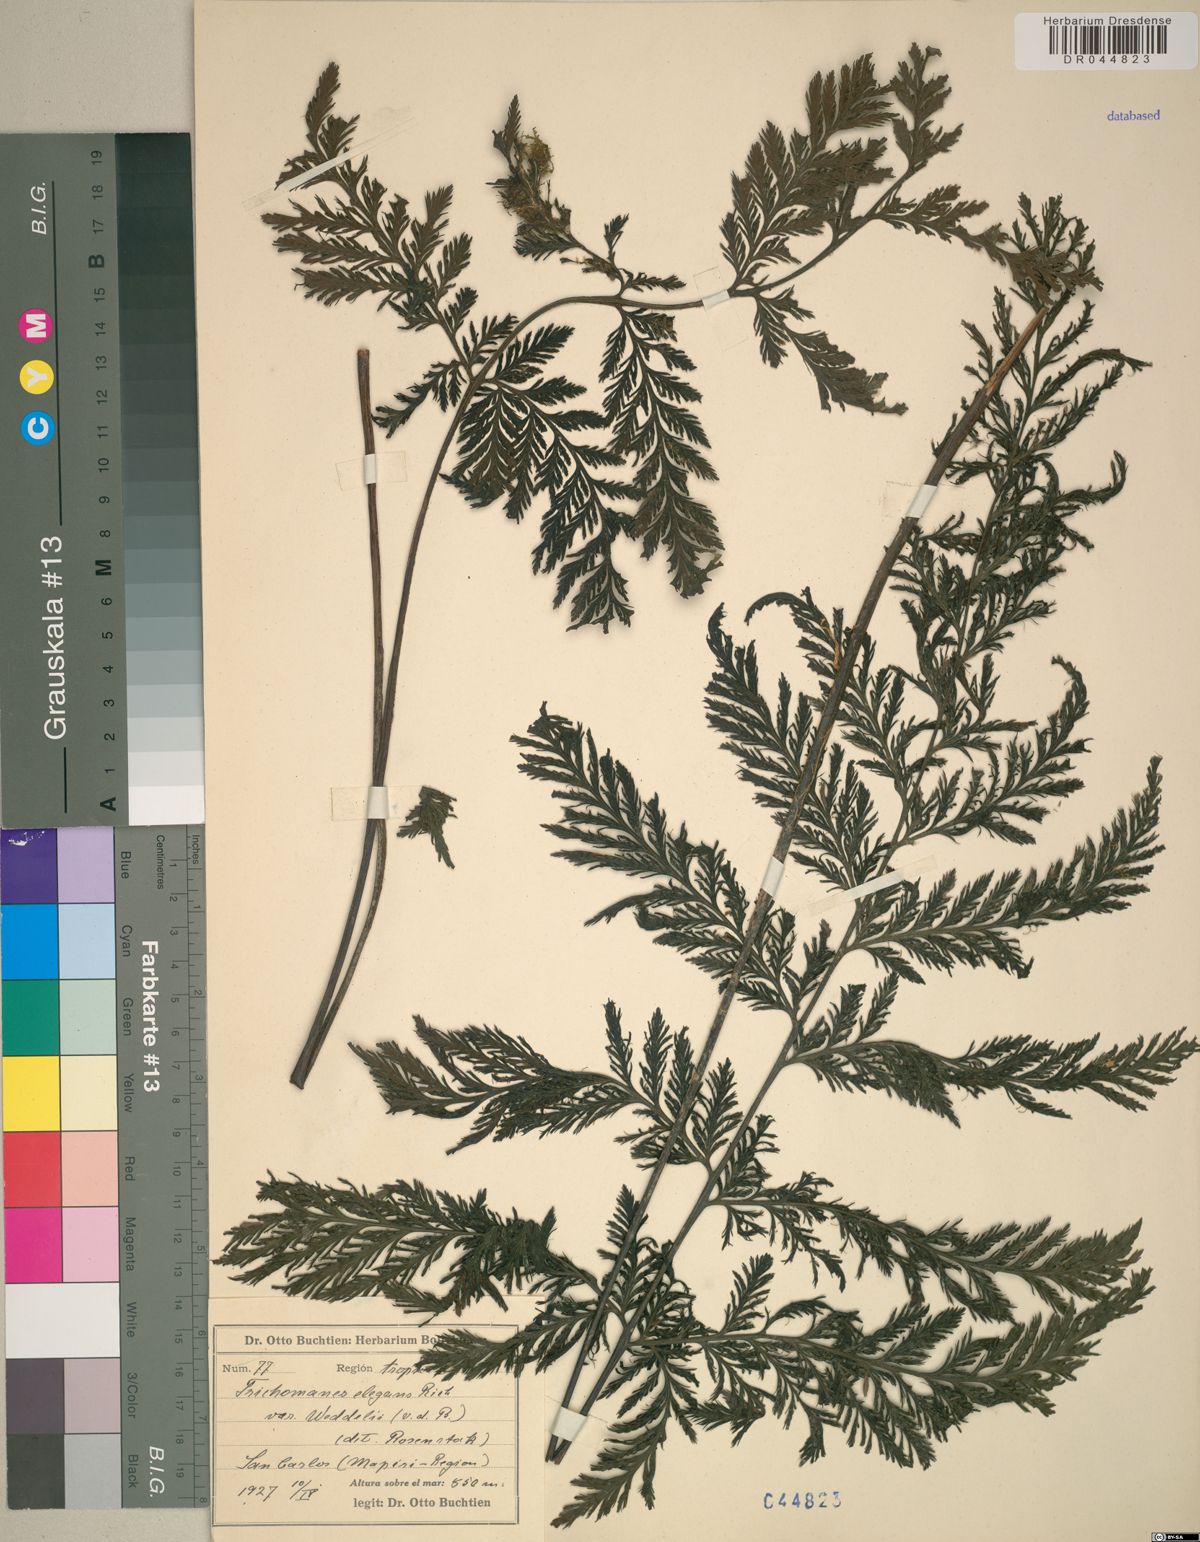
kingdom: Plantae
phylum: Tracheophyta
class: Polypodiopsida
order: Hymenophyllales
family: Hymenophyllaceae
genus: Trichomanes
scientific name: Trichomanes elegans
